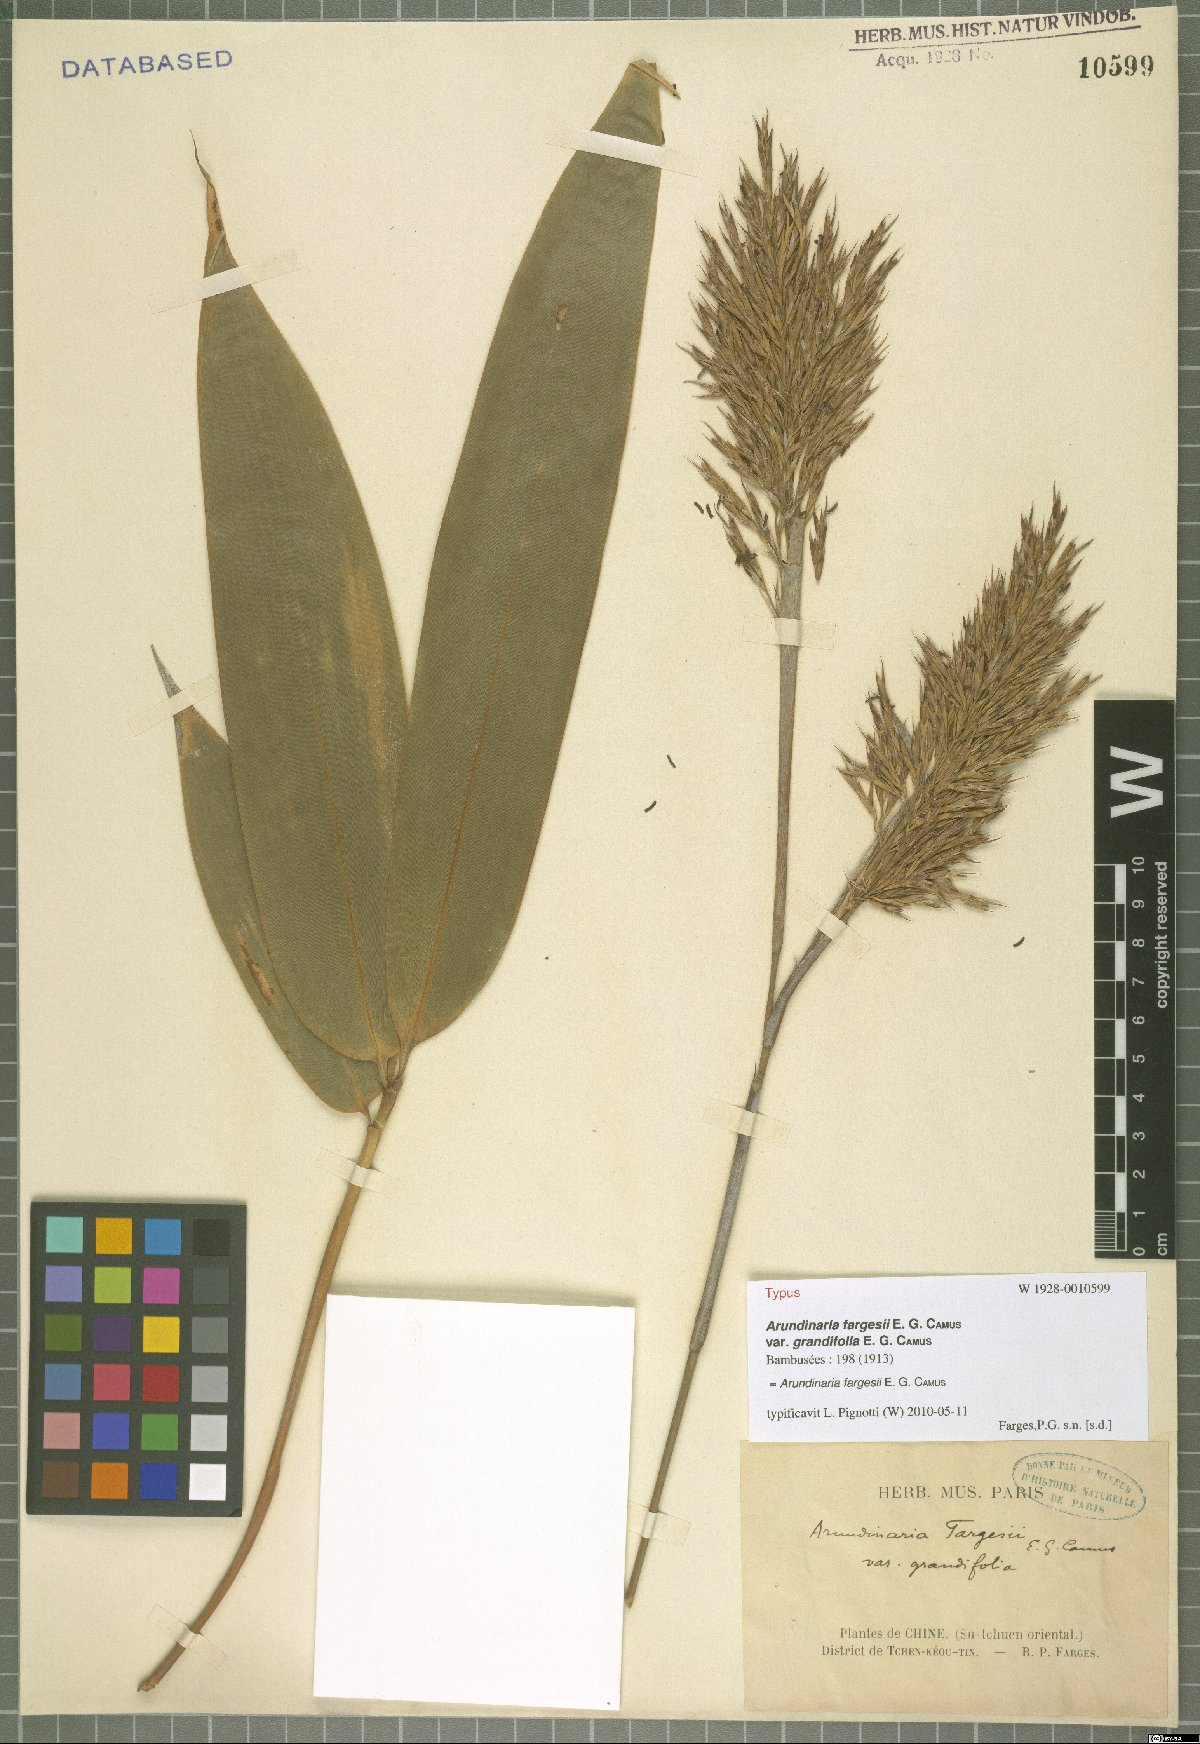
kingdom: Plantae
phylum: Tracheophyta
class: Liliopsida
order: Poales
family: Poaceae
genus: Bashania
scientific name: Bashania fargesii
